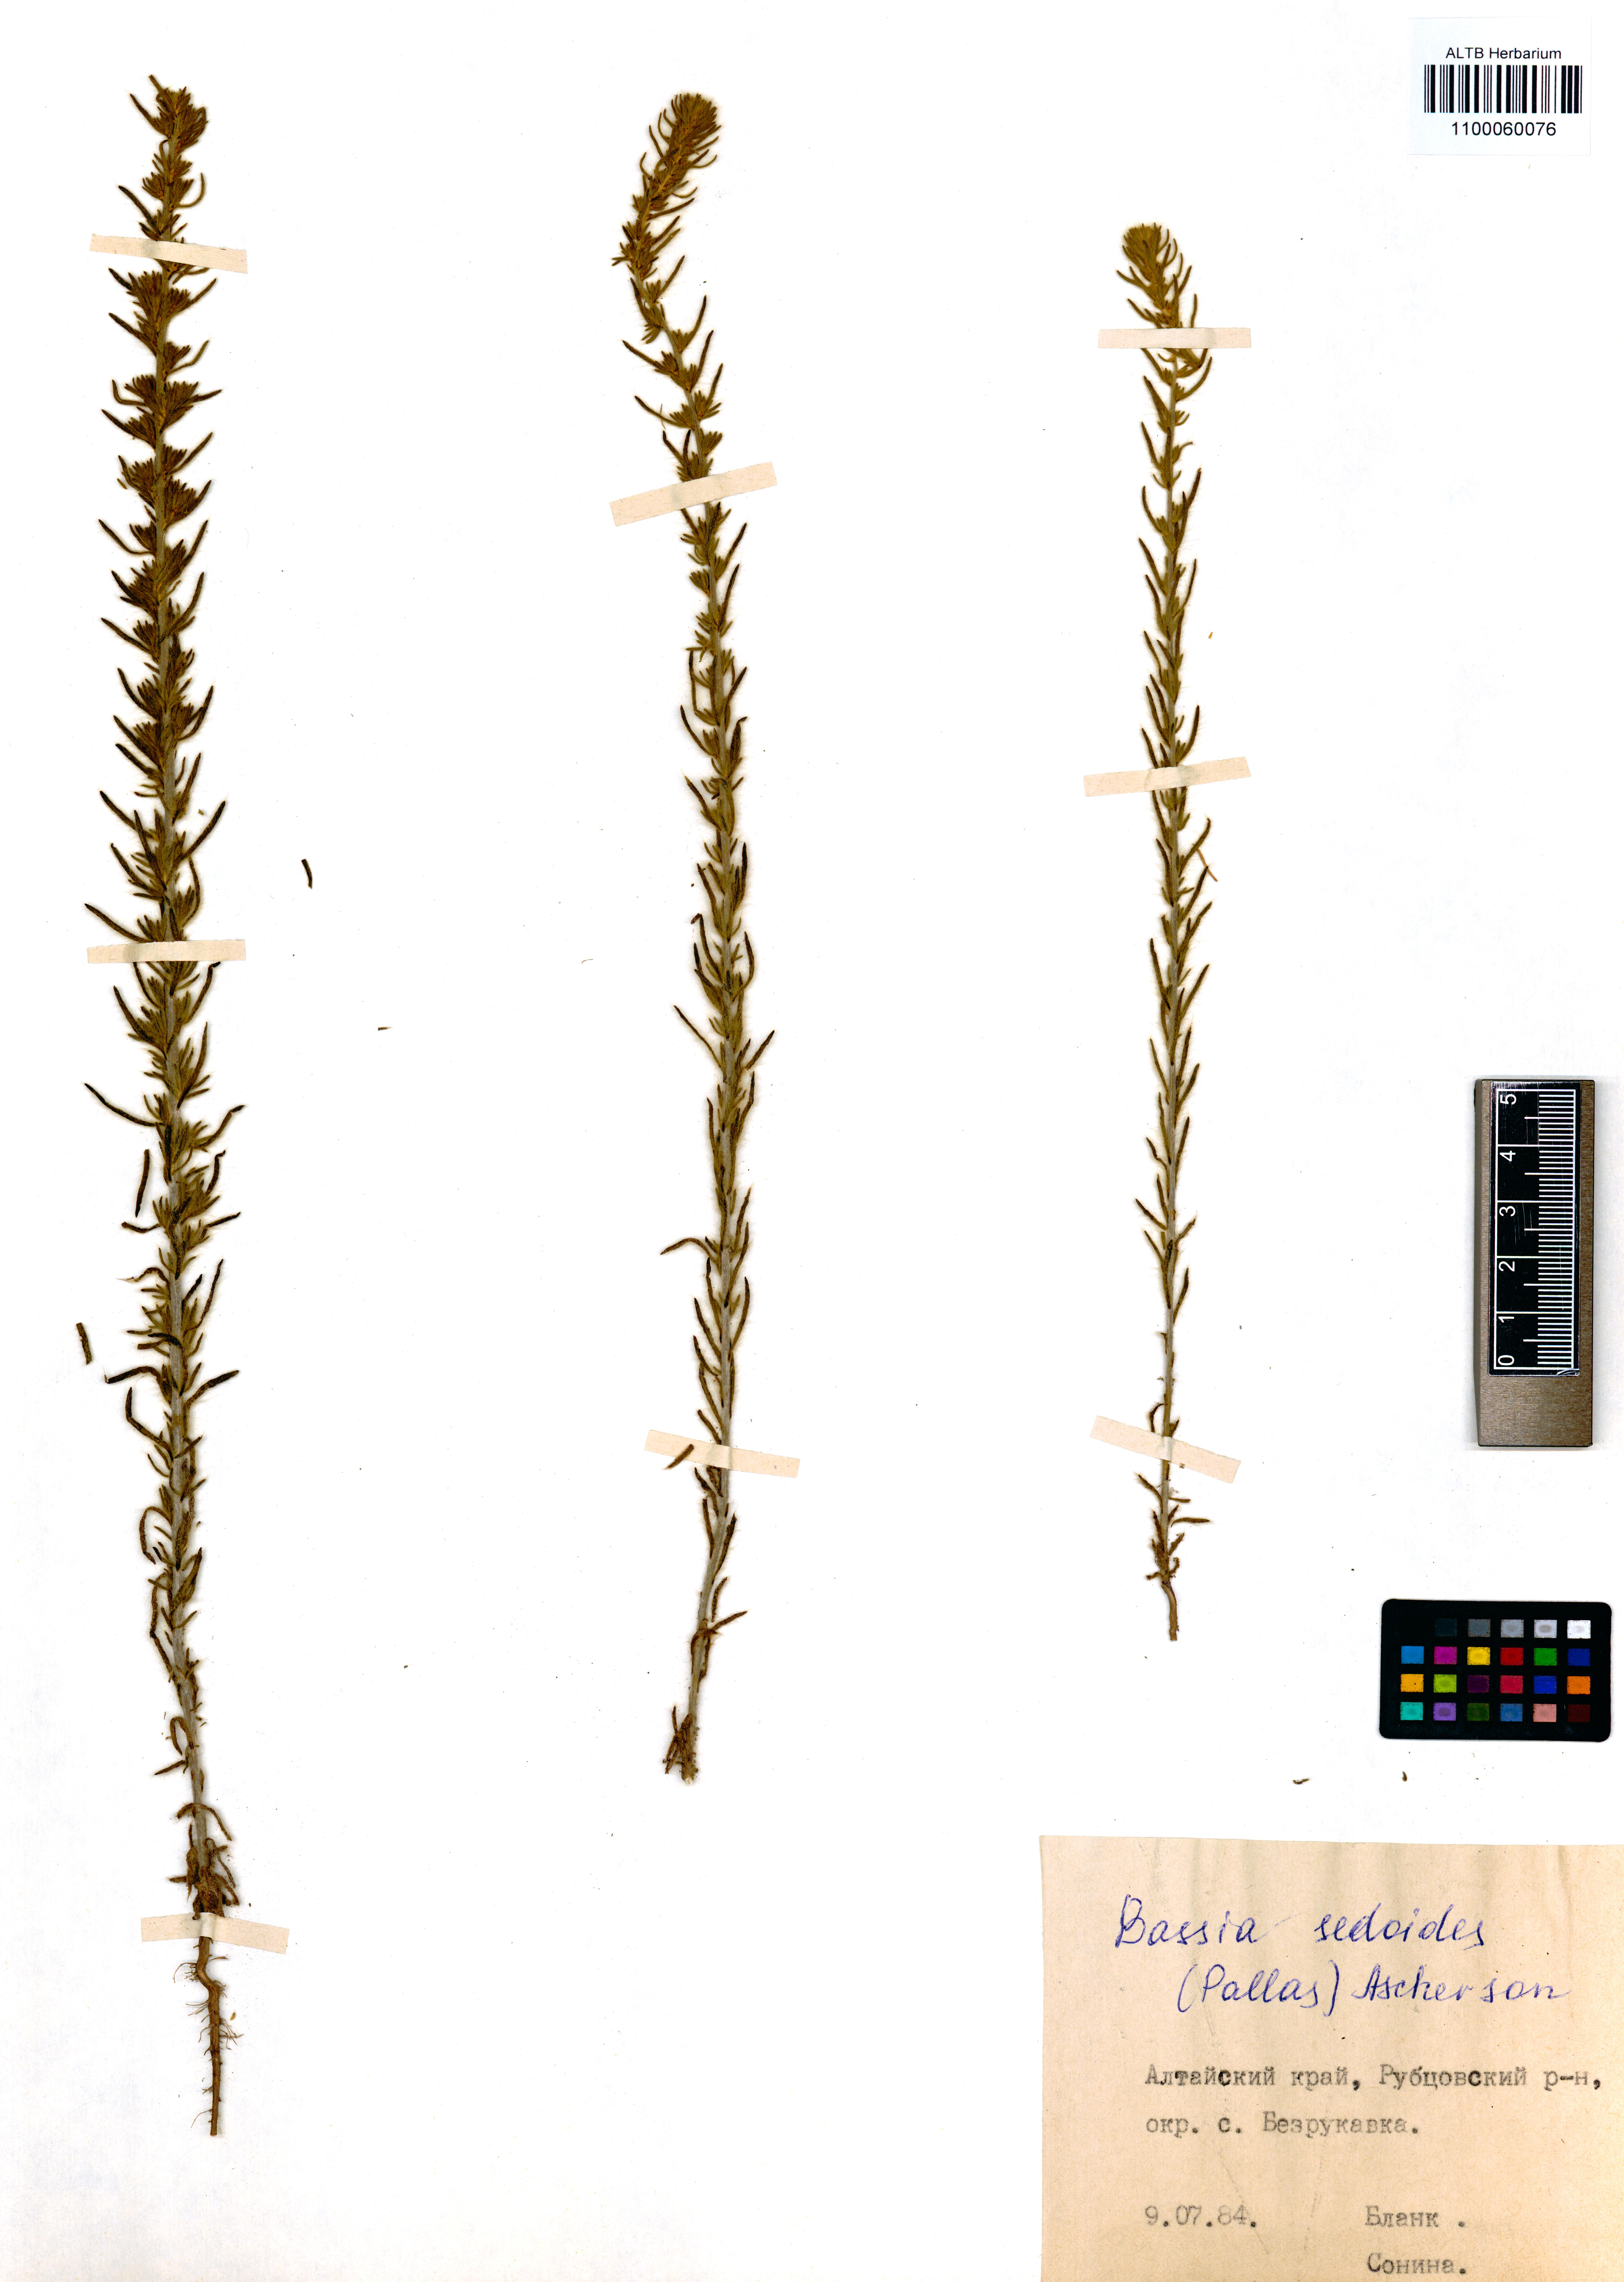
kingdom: Plantae
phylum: Tracheophyta
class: Magnoliopsida
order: Caryophyllales
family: Amaranthaceae
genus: Sedobassia
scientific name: Sedobassia sedoides
